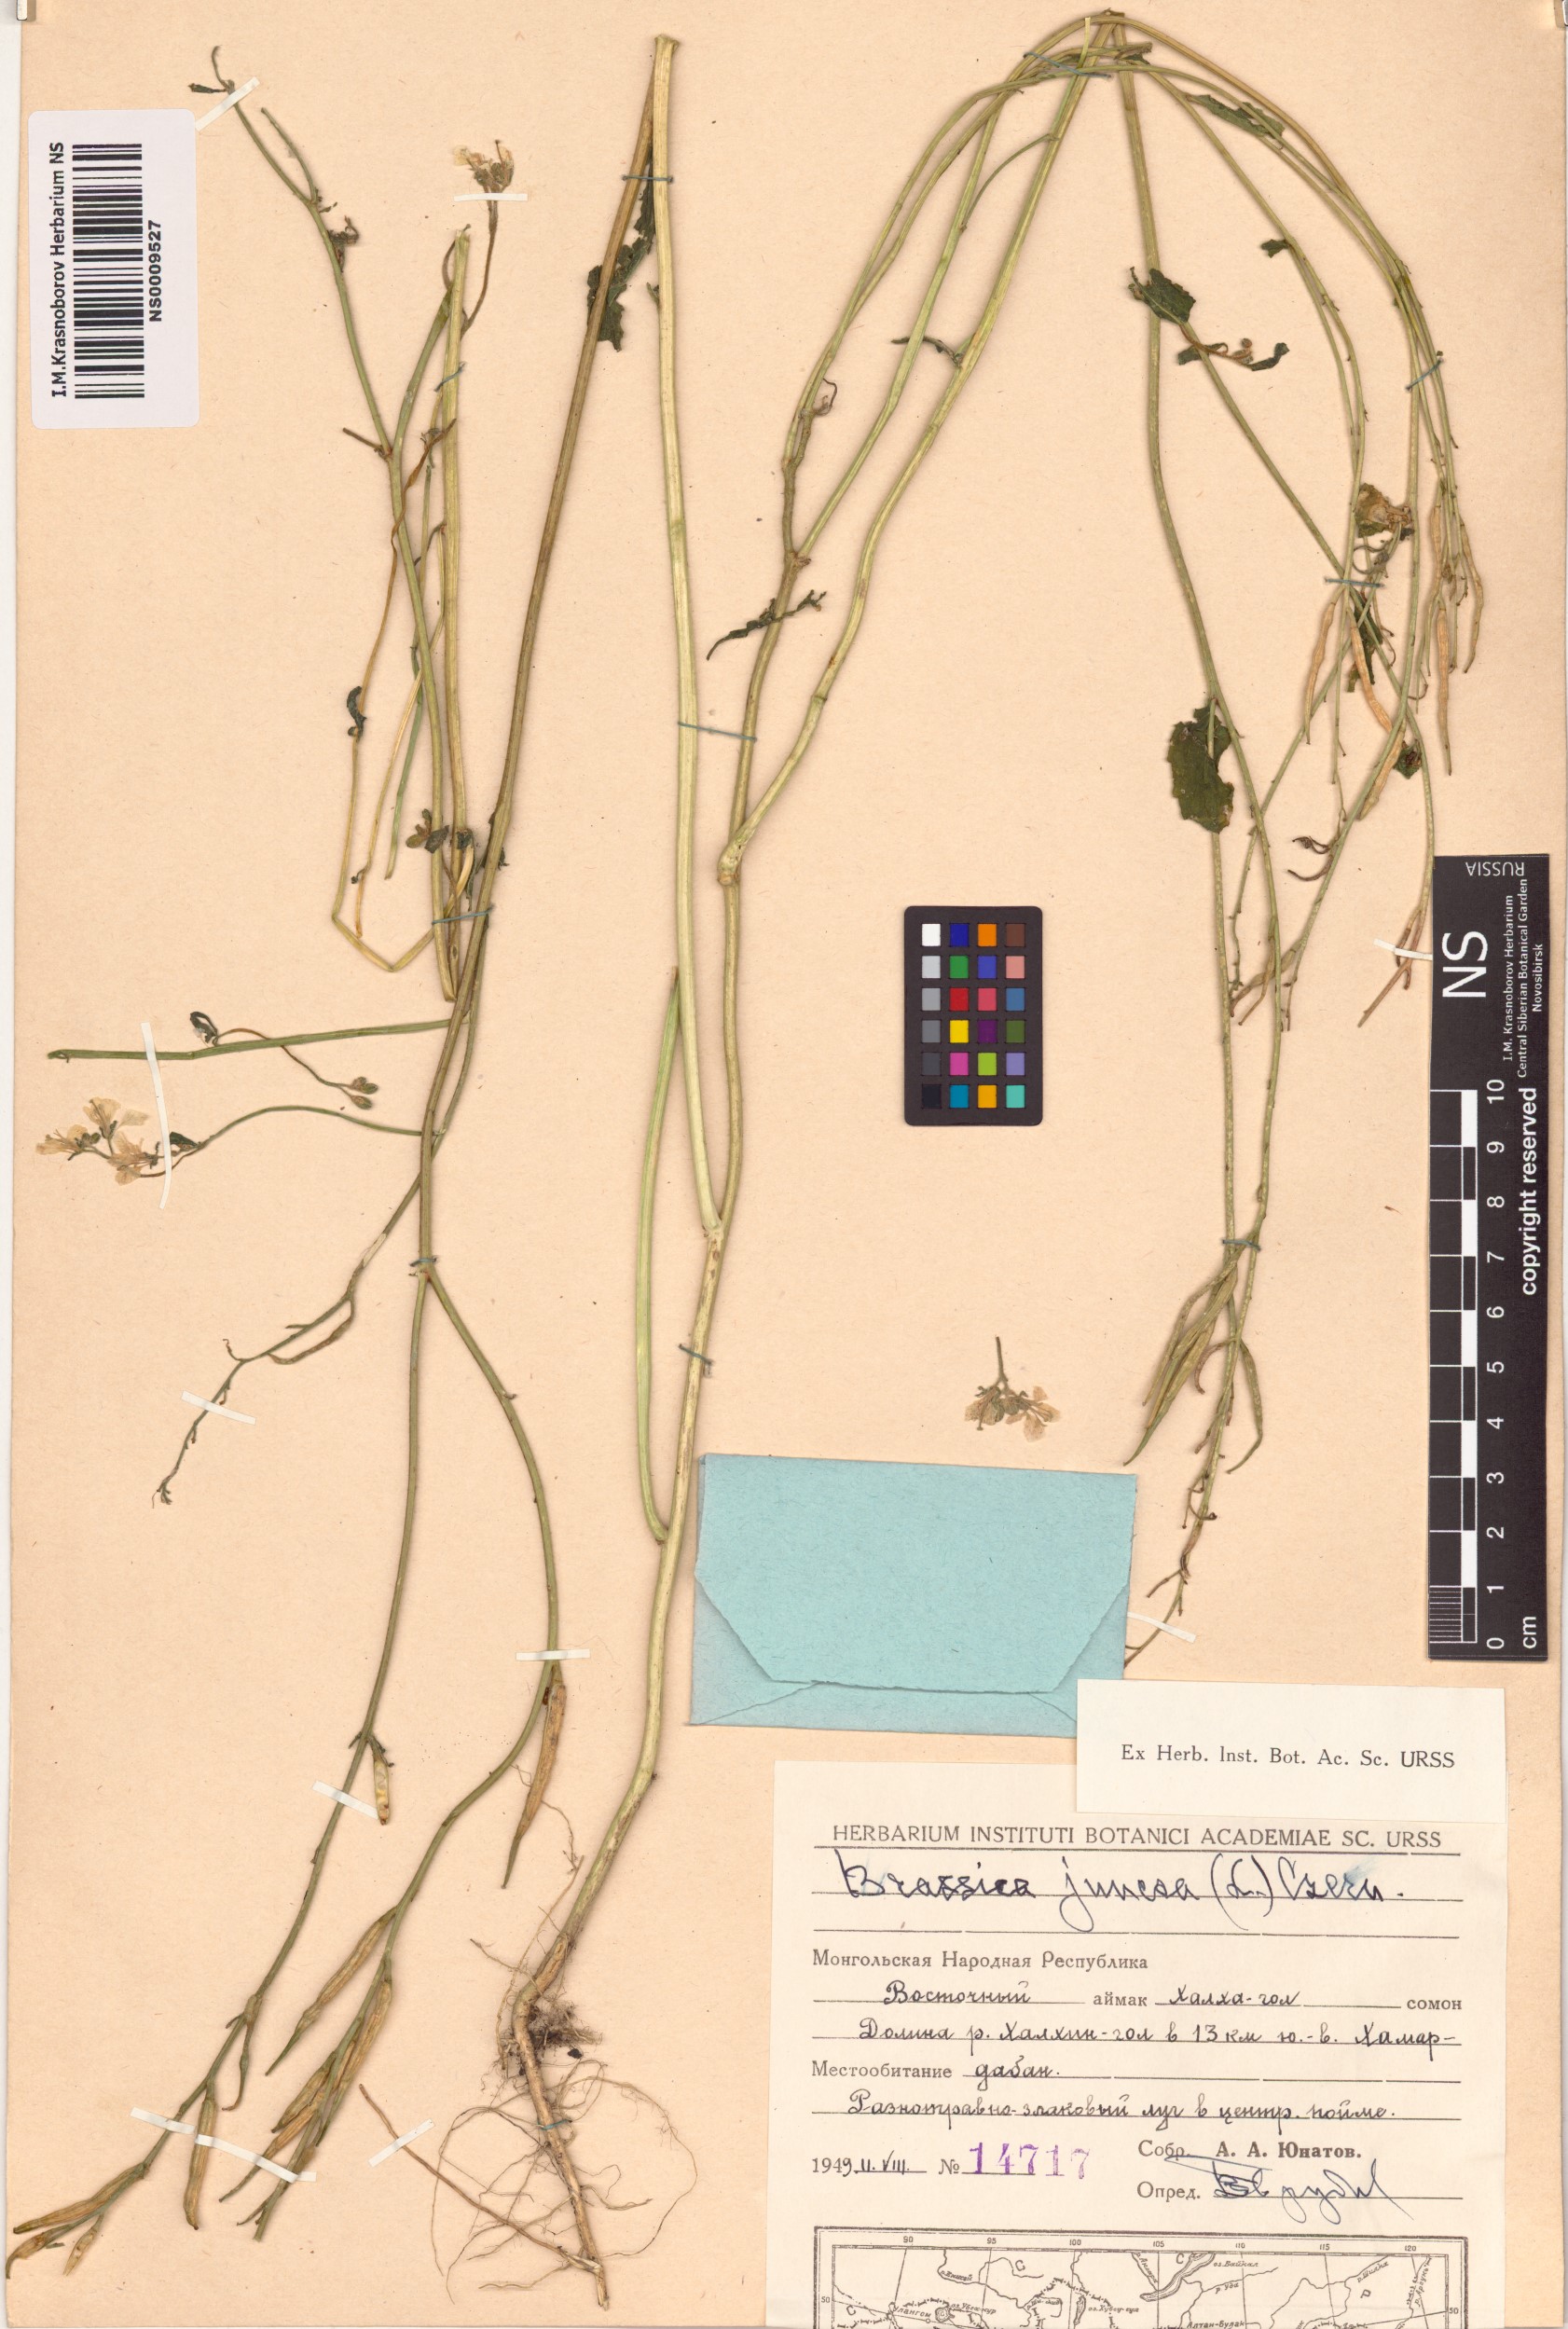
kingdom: Plantae
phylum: Tracheophyta
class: Magnoliopsida
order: Brassicales
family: Brassicaceae
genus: Brassica
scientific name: Brassica juncea
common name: Brown mustard
